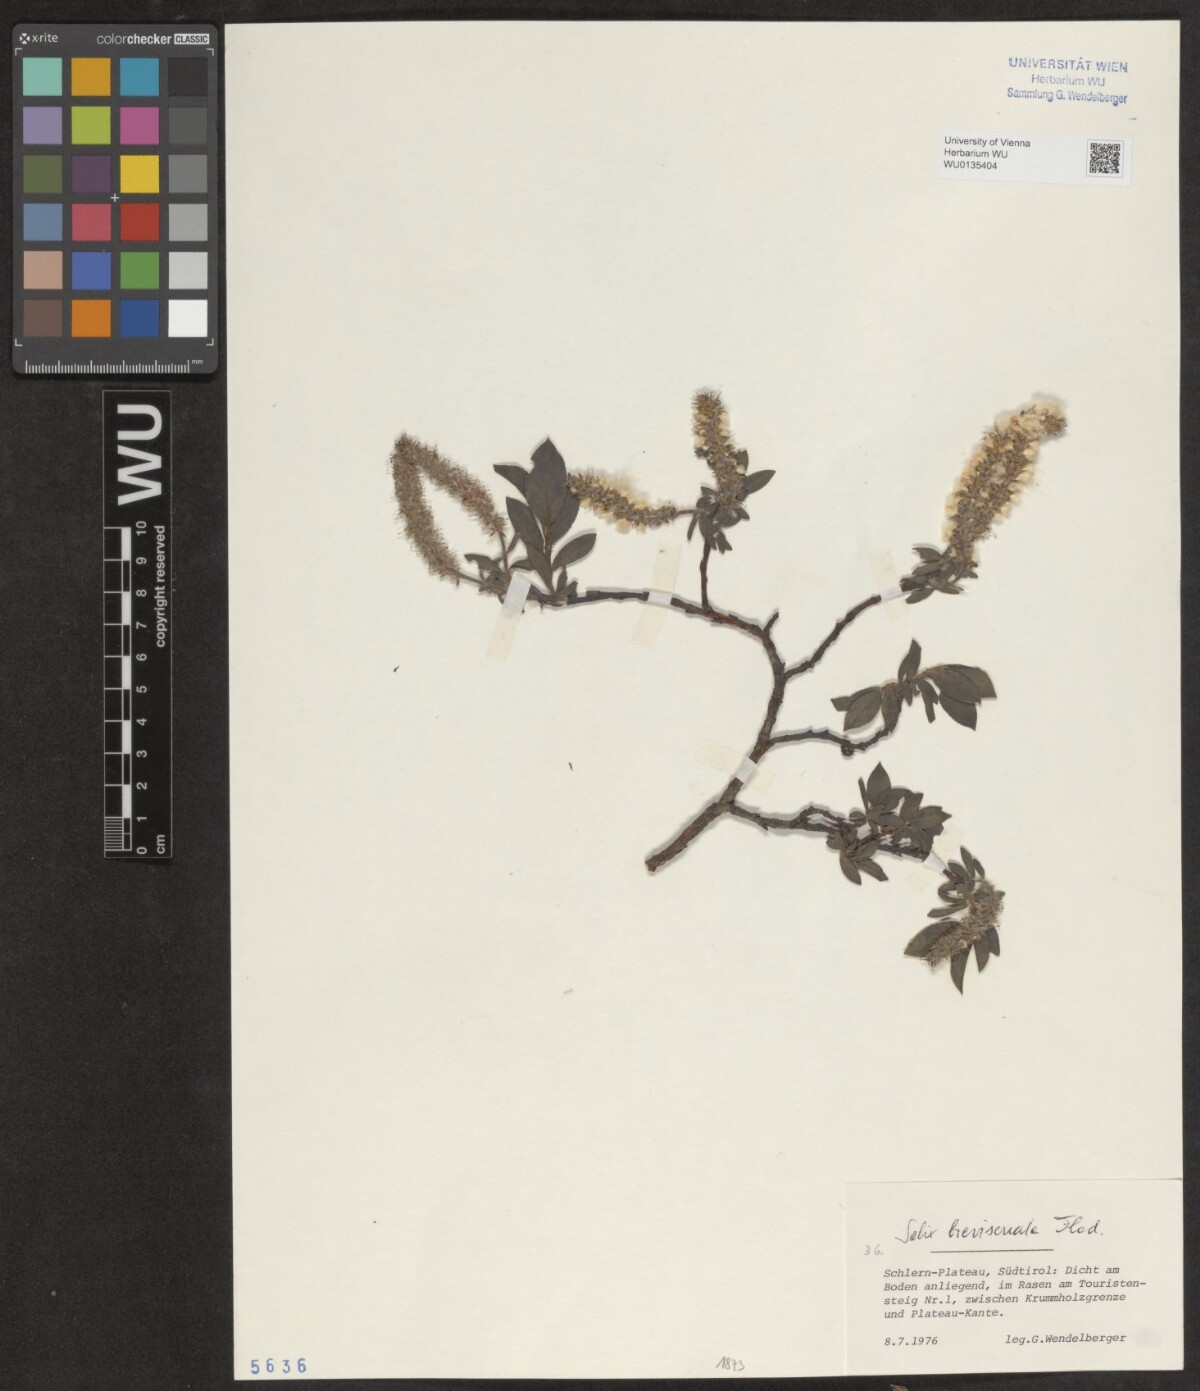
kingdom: Plantae
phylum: Tracheophyta
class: Magnoliopsida
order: Malpighiales
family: Salicaceae
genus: Salix
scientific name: Salix breviserrata
